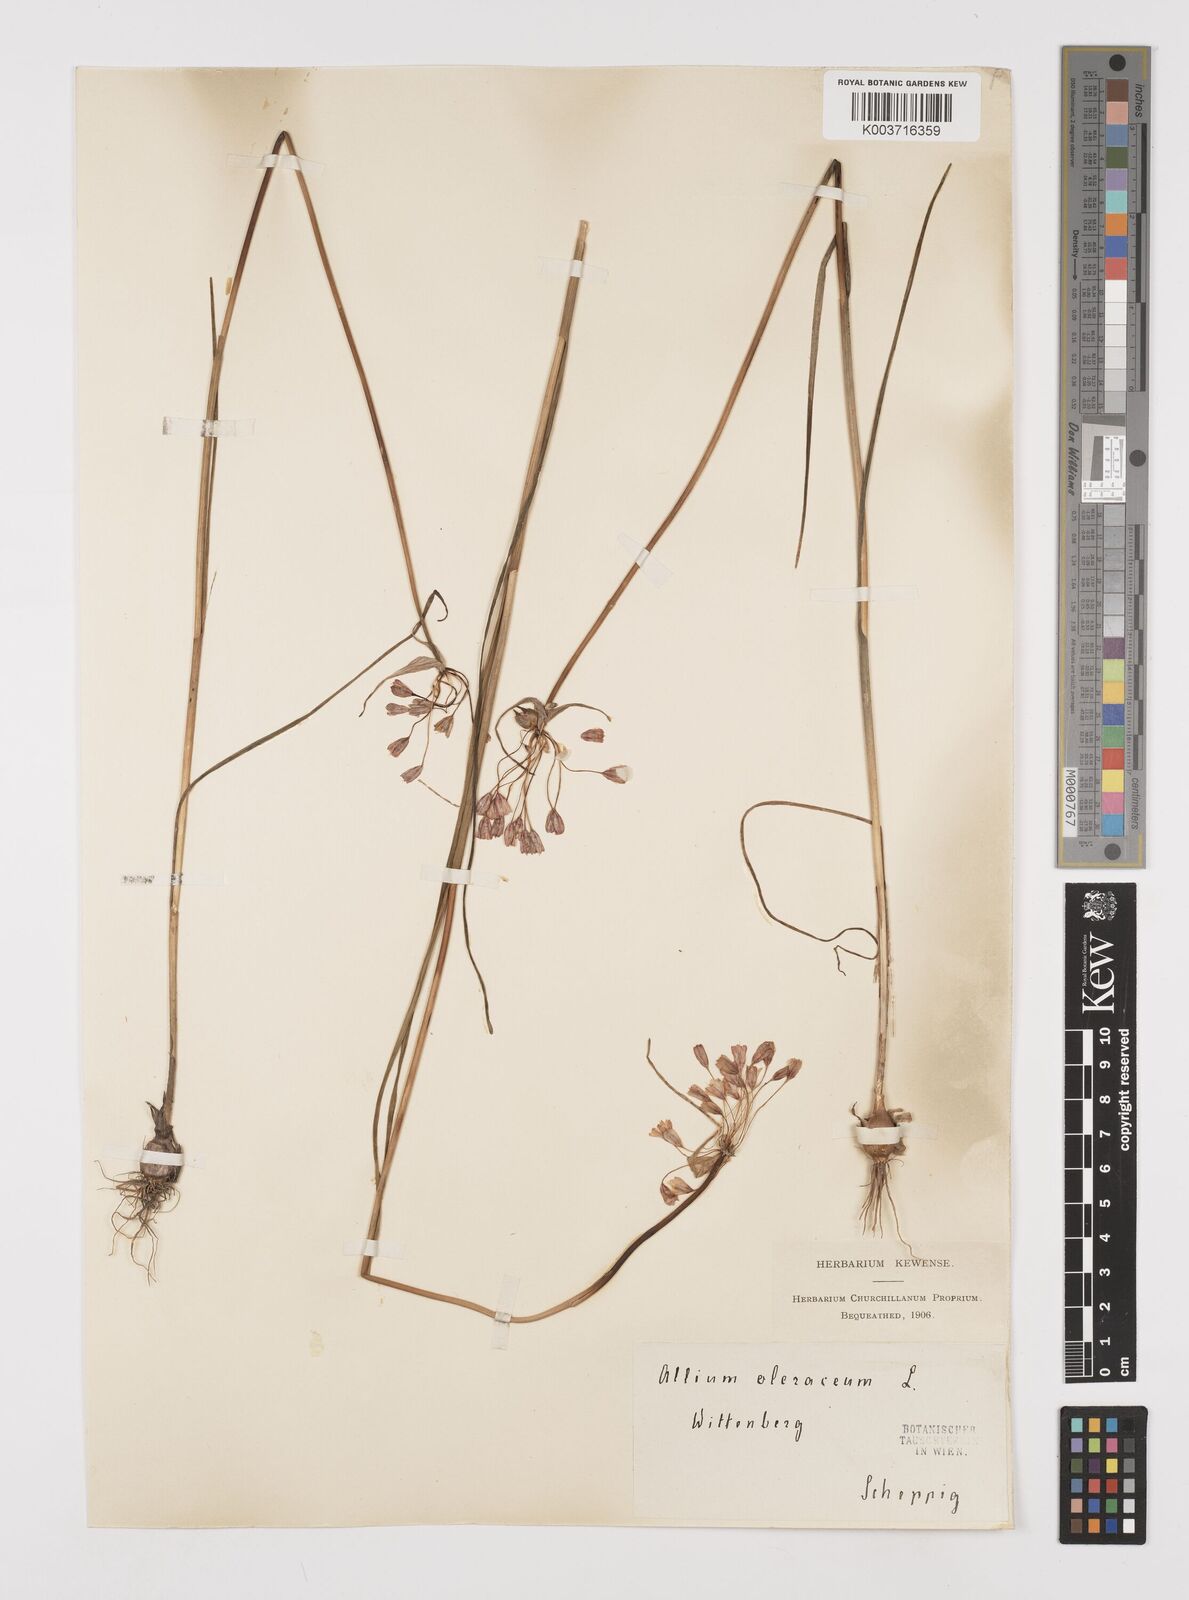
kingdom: Plantae
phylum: Tracheophyta
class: Liliopsida
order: Asparagales
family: Amaryllidaceae
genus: Allium
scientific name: Allium oleraceum
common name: Field garlic
